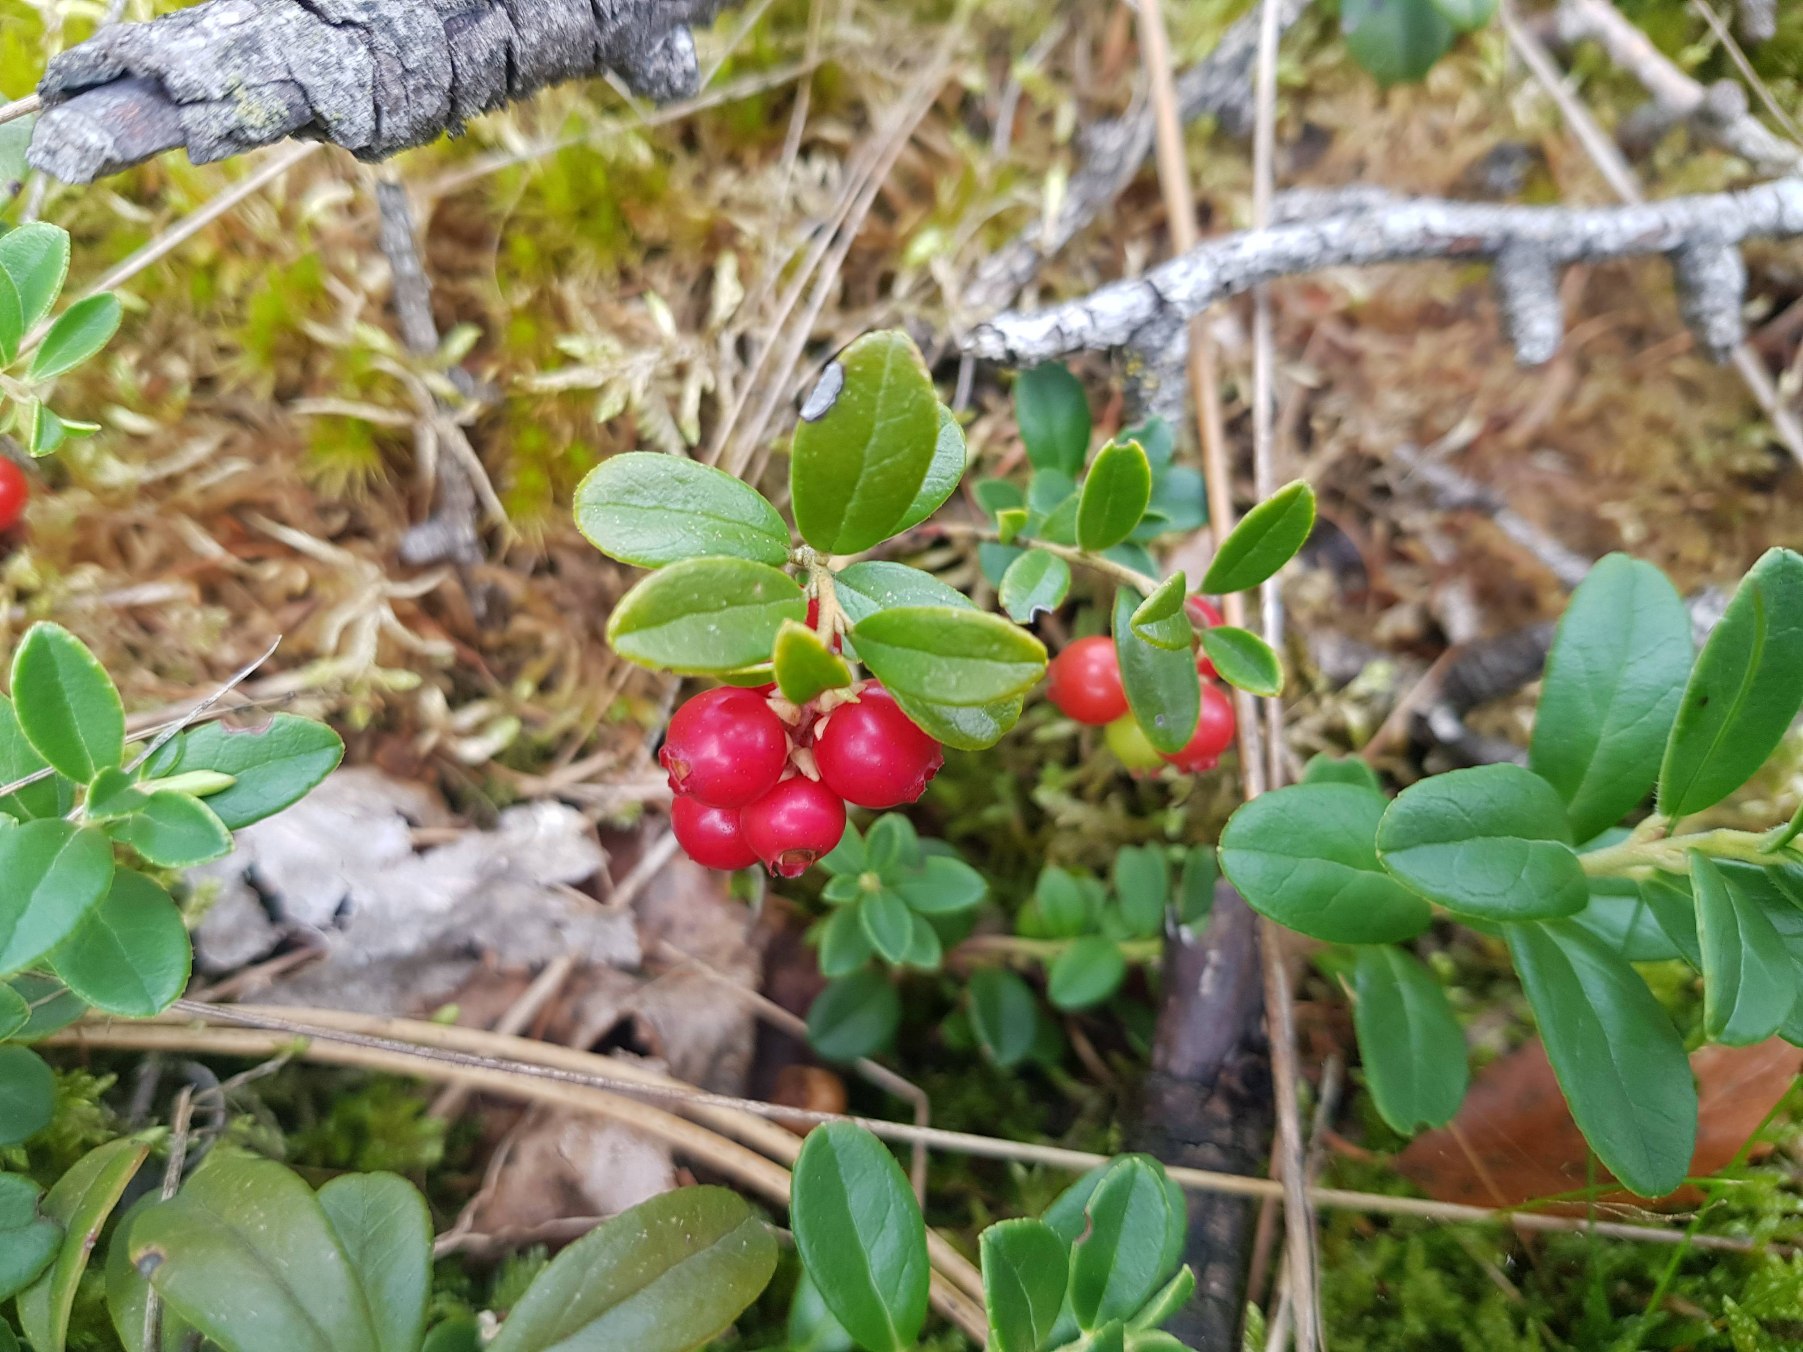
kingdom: Plantae
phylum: Tracheophyta
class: Magnoliopsida
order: Ericales
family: Ericaceae
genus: Vaccinium
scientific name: Vaccinium vitis-idaea
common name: Tyttebær
